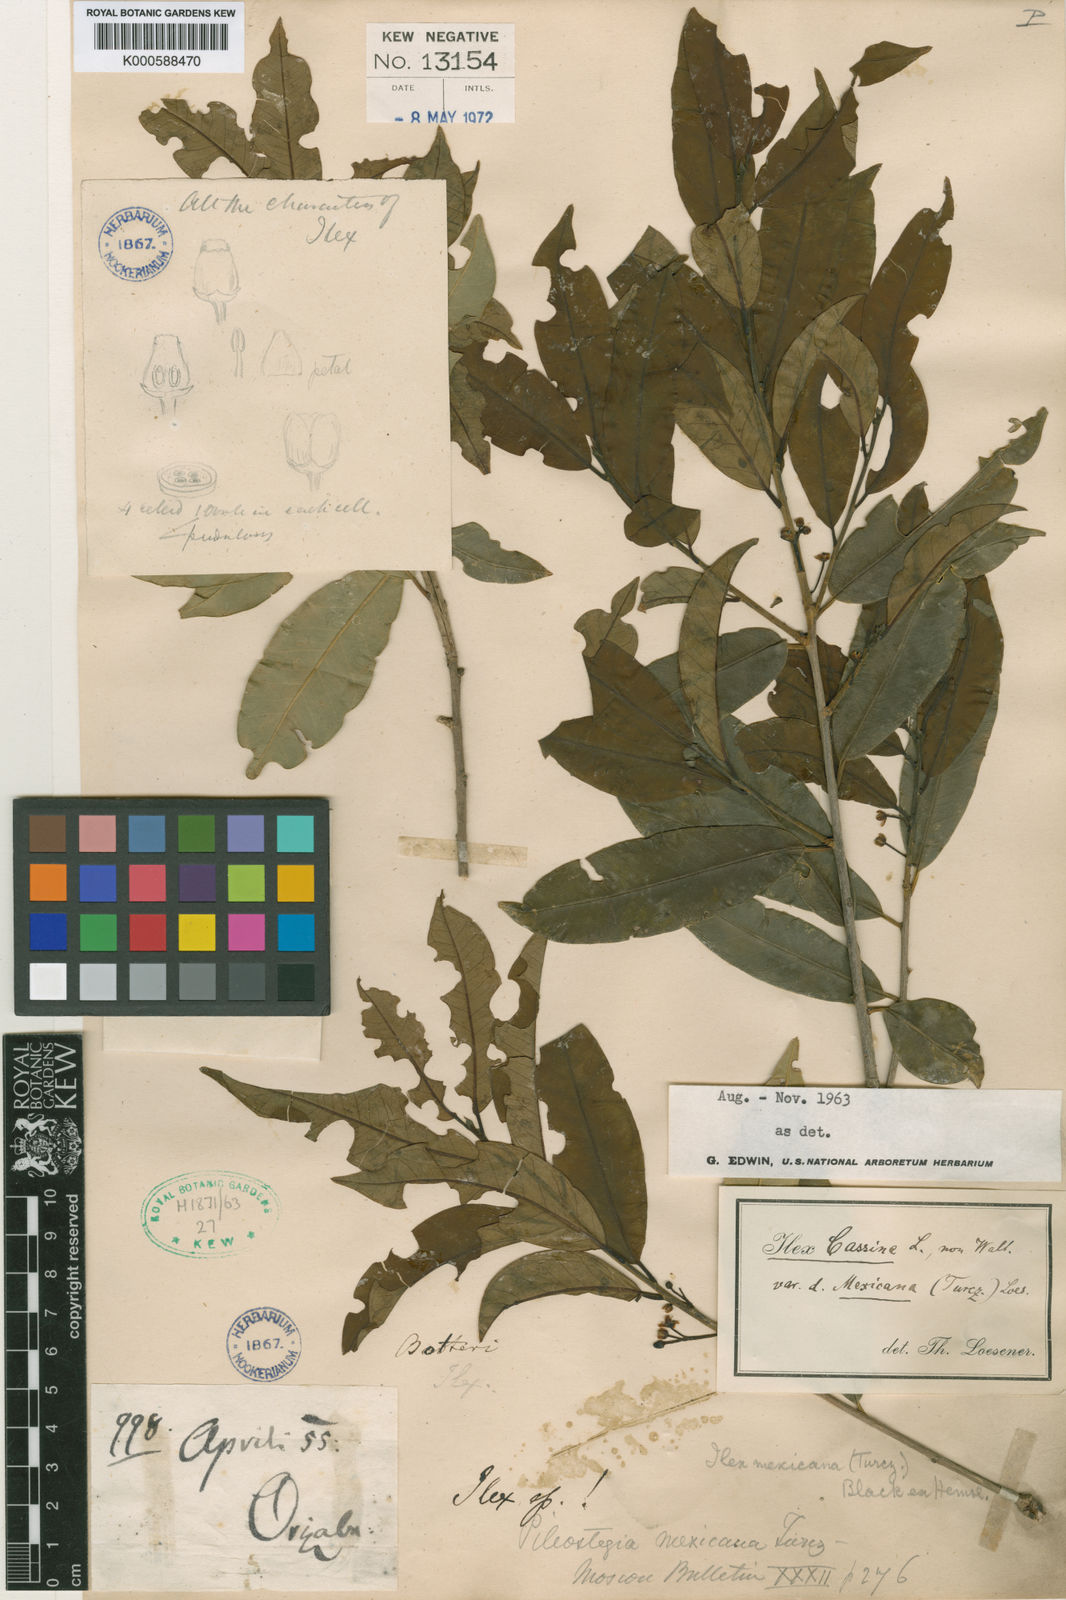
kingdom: Plantae
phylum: Tracheophyta
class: Magnoliopsida
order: Aquifoliales
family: Aquifoliaceae
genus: Ilex
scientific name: Ilex cassine
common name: Dahoon
